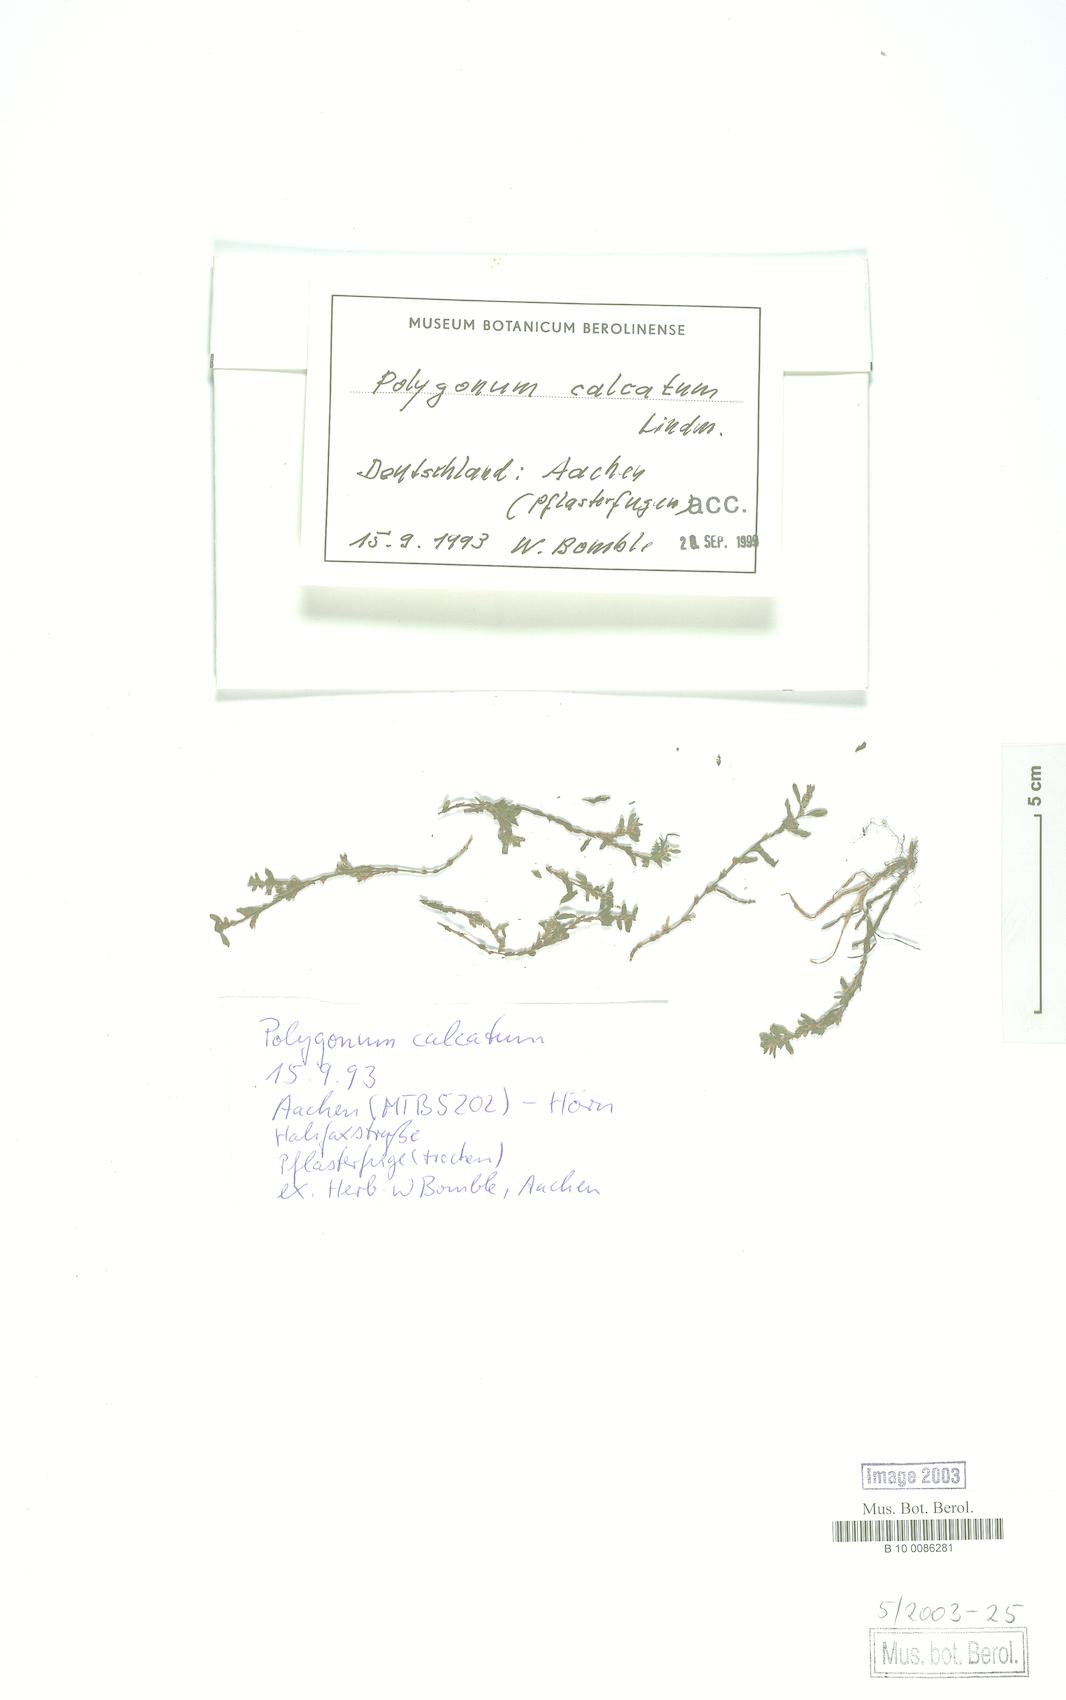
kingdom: Plantae
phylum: Tracheophyta
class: Magnoliopsida
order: Caryophyllales
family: Polygonaceae
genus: Polygonum
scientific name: Polygonum arenastrum
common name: Equal-leaved knotgrass
